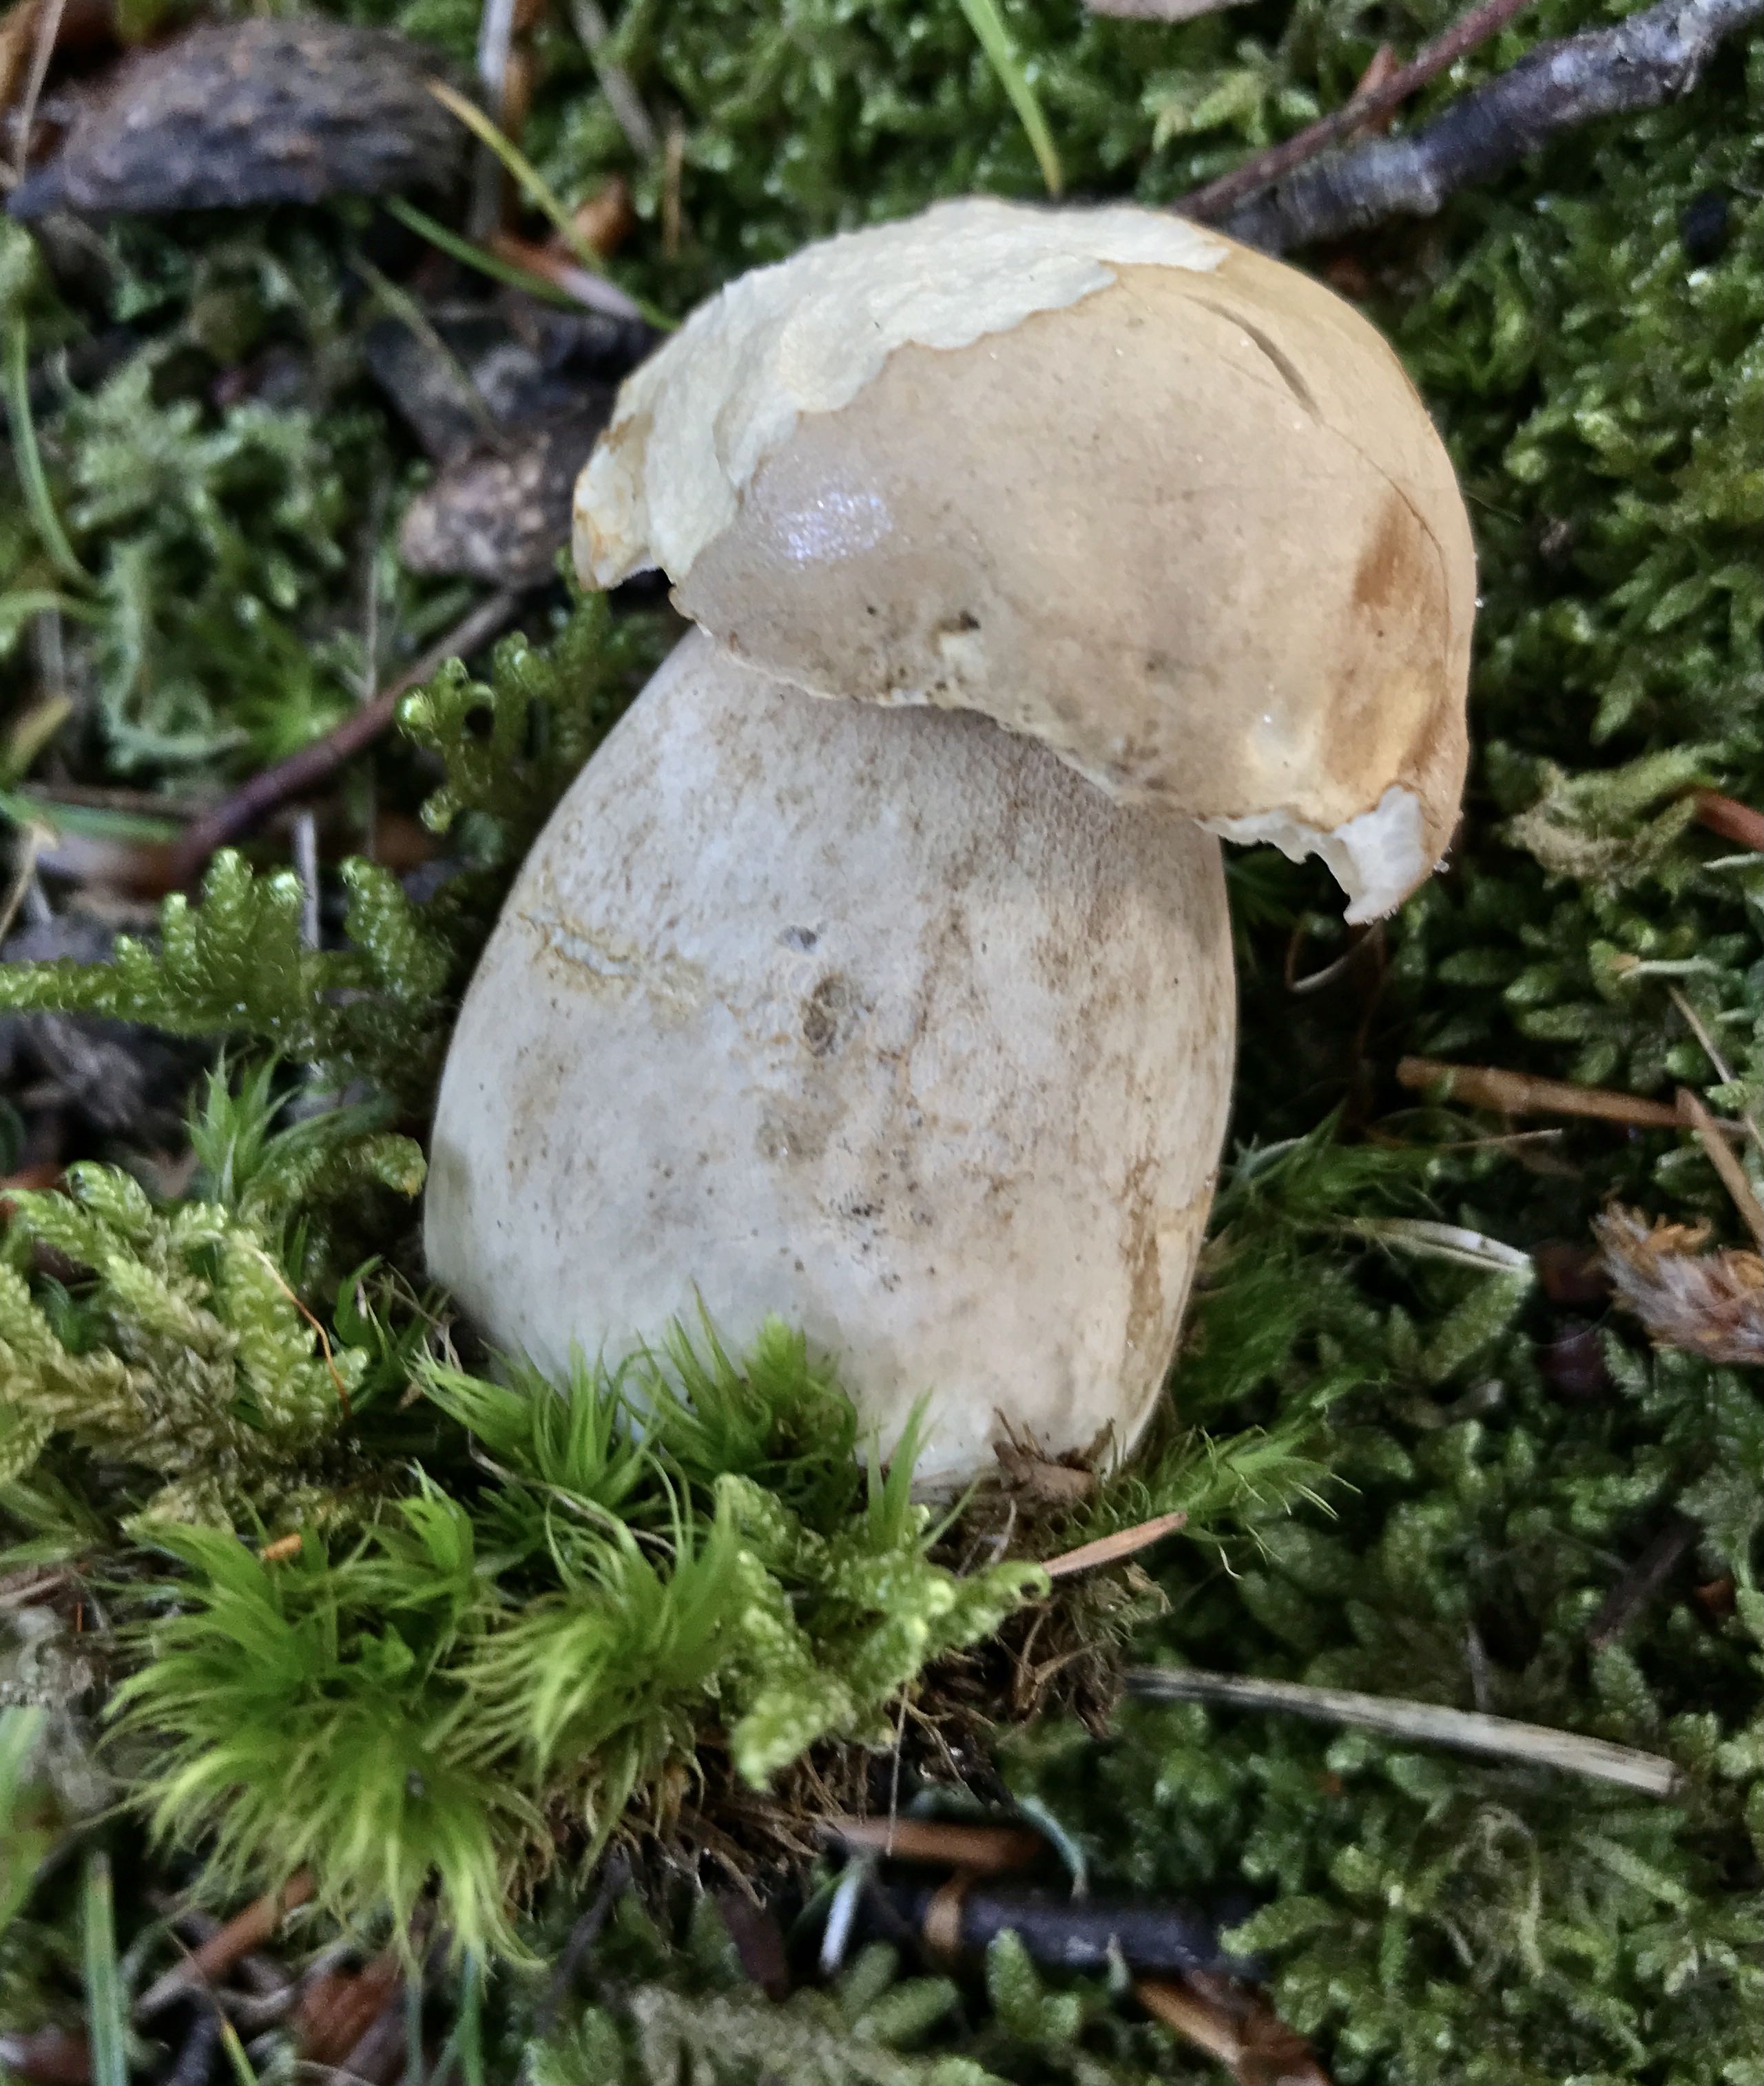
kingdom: Fungi
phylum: Basidiomycota
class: Agaricomycetes
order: Boletales
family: Boletaceae
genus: Boletus
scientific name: Boletus reticulatus
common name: sommer-rørhat
